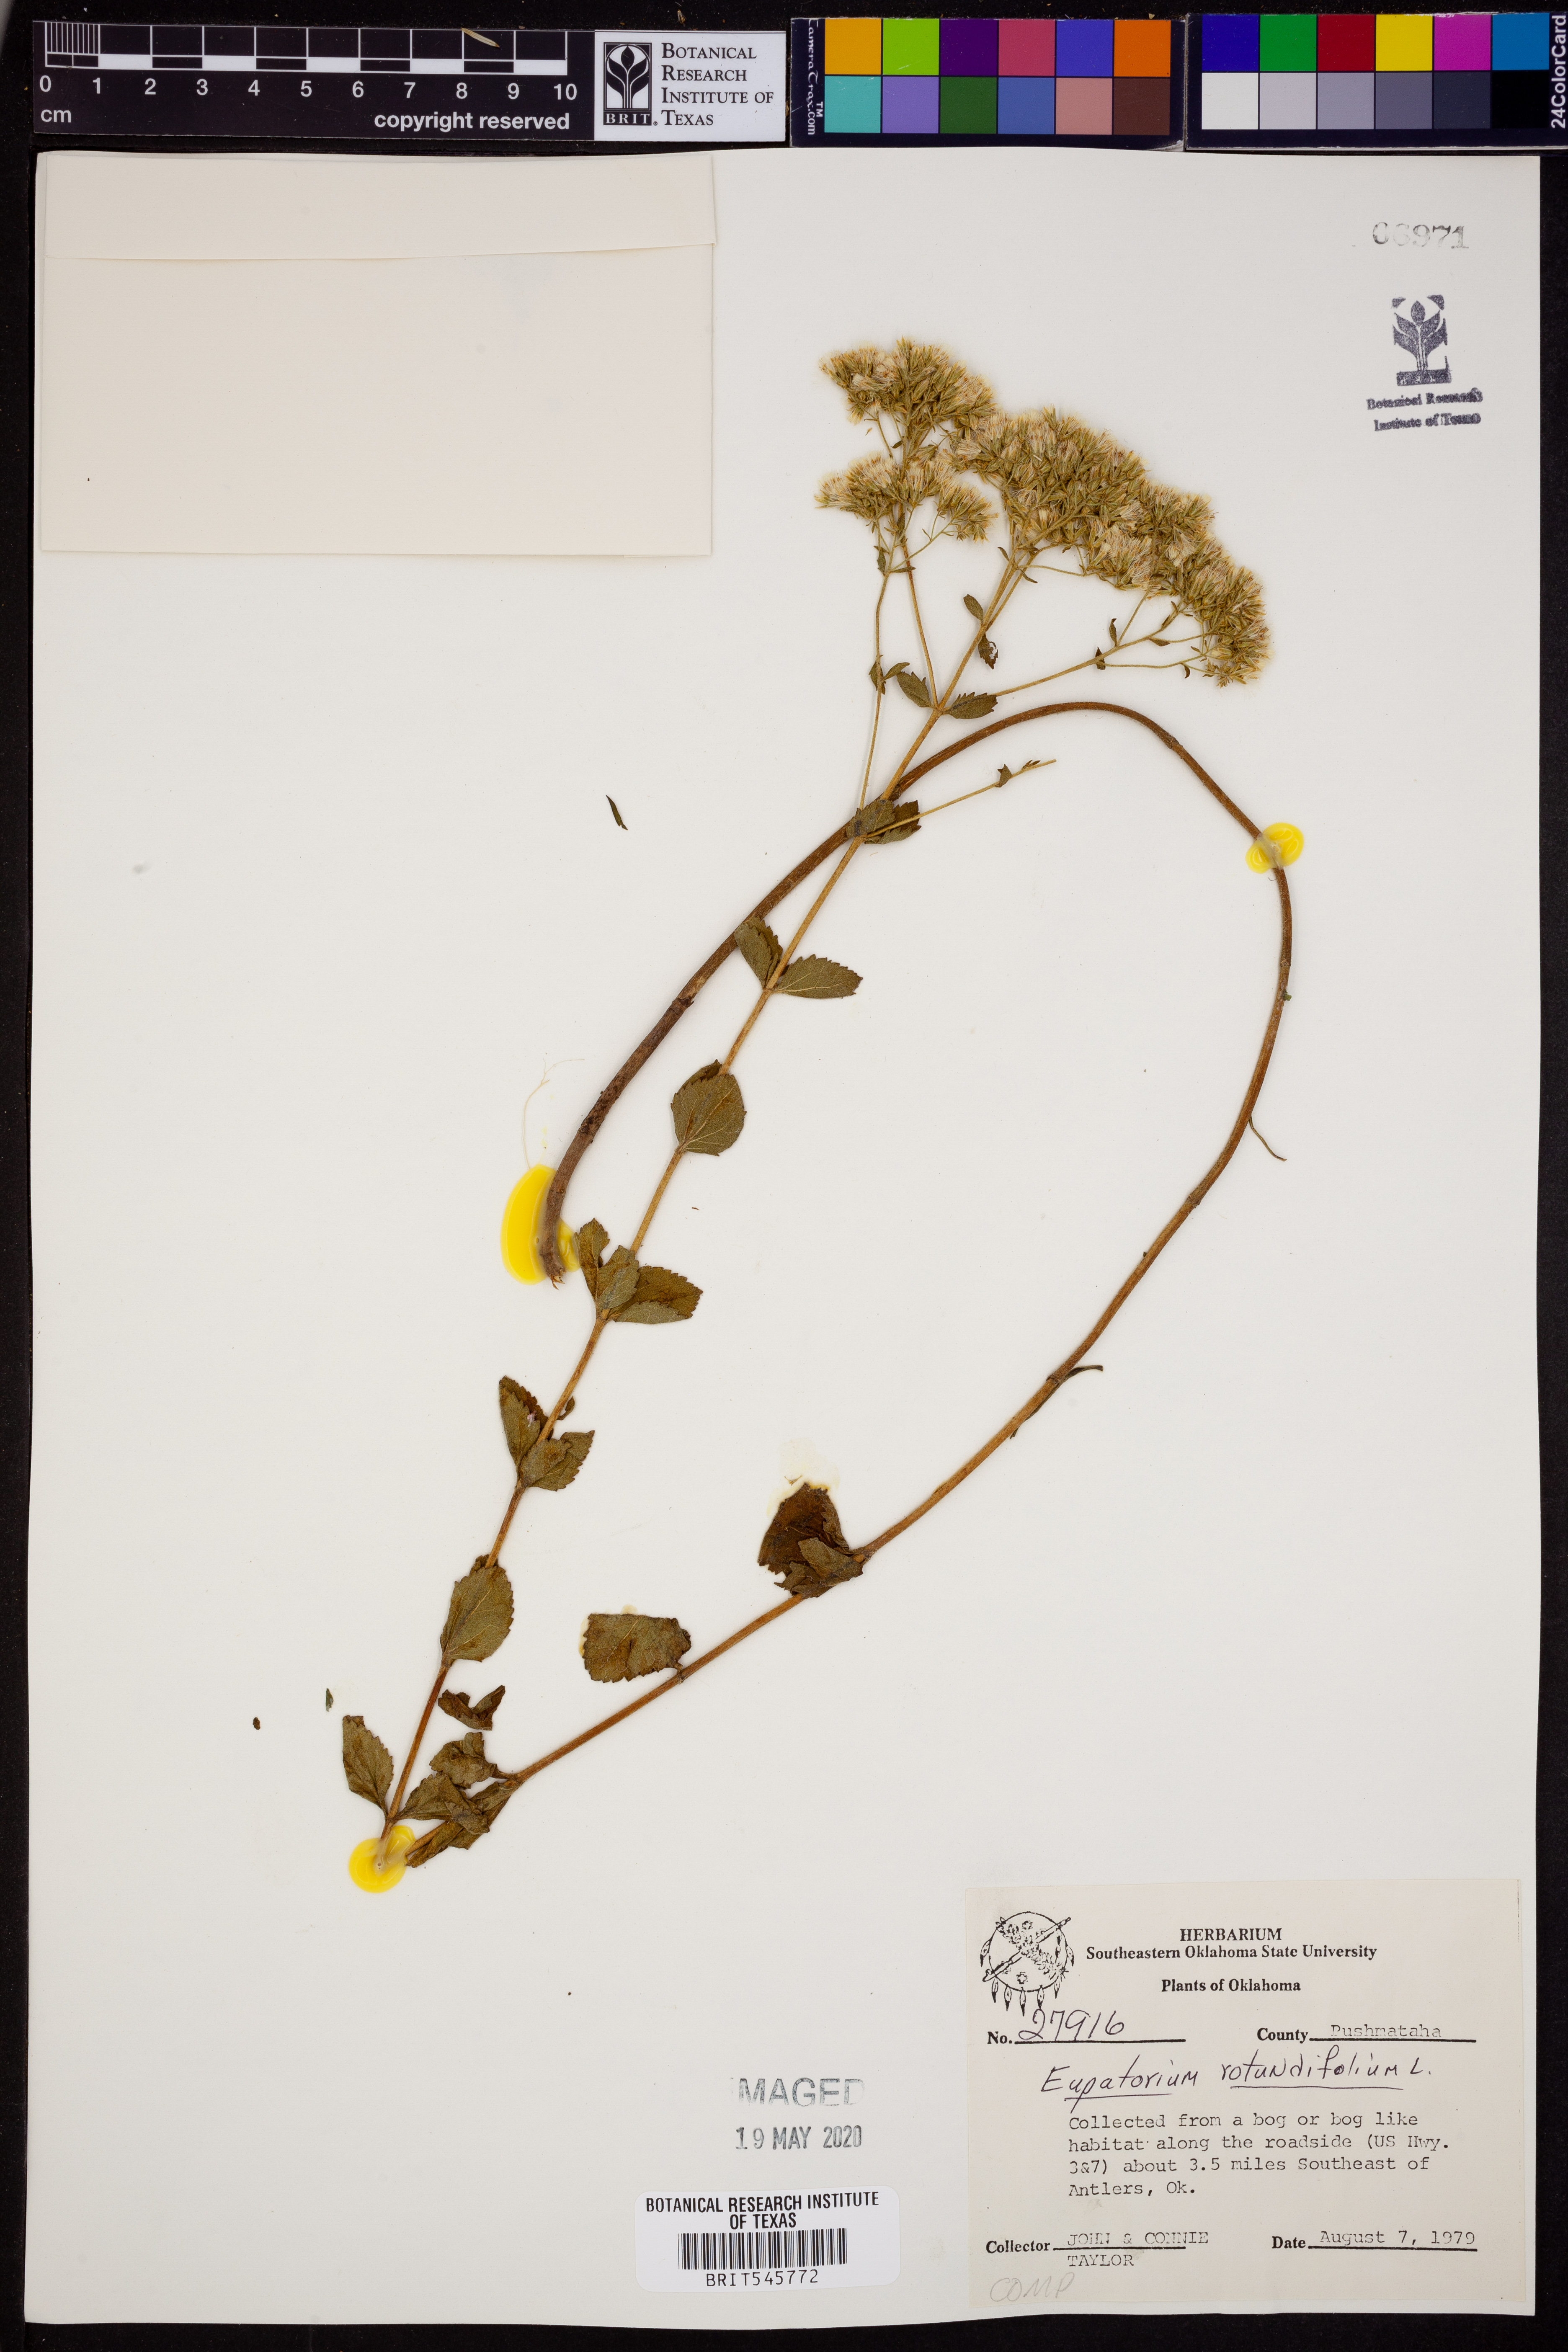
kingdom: Plantae
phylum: Tracheophyta
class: Magnoliopsida
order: Asterales
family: Asteraceae
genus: Eupatorium
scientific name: Eupatorium rotundifolium
